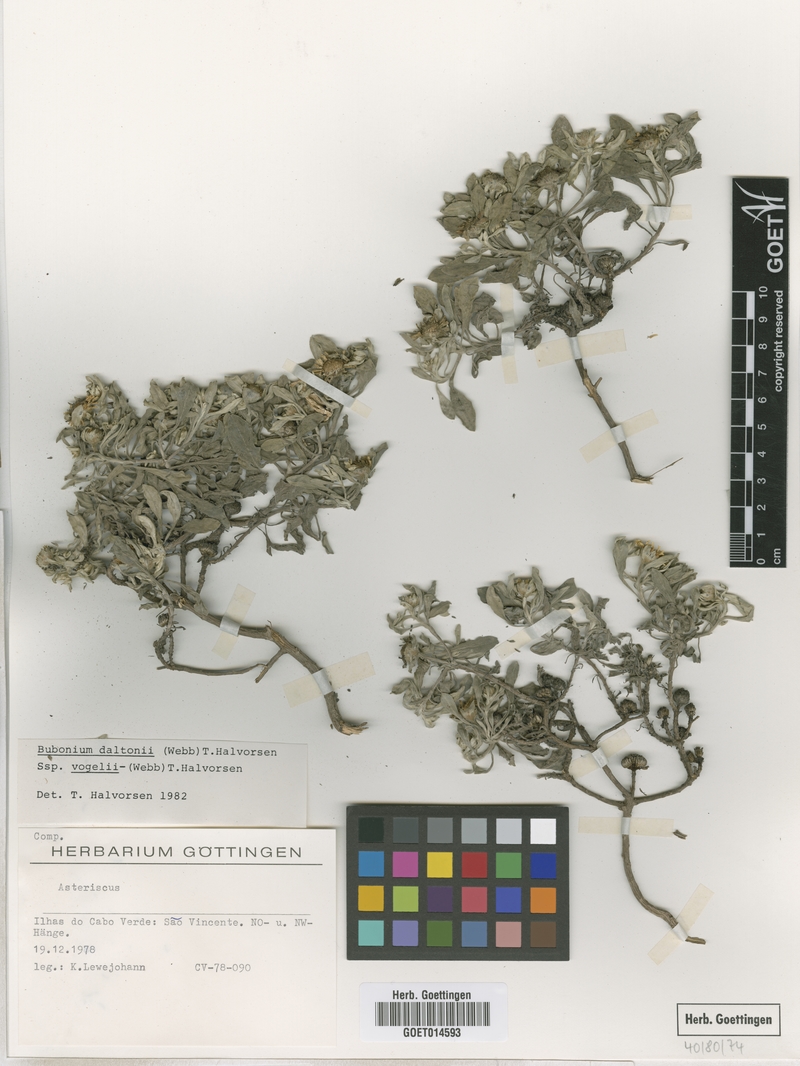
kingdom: Plantae
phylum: Tracheophyta
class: Magnoliopsida
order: Asterales
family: Asteraceae
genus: Asteriscus
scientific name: Asteriscus daltonii
